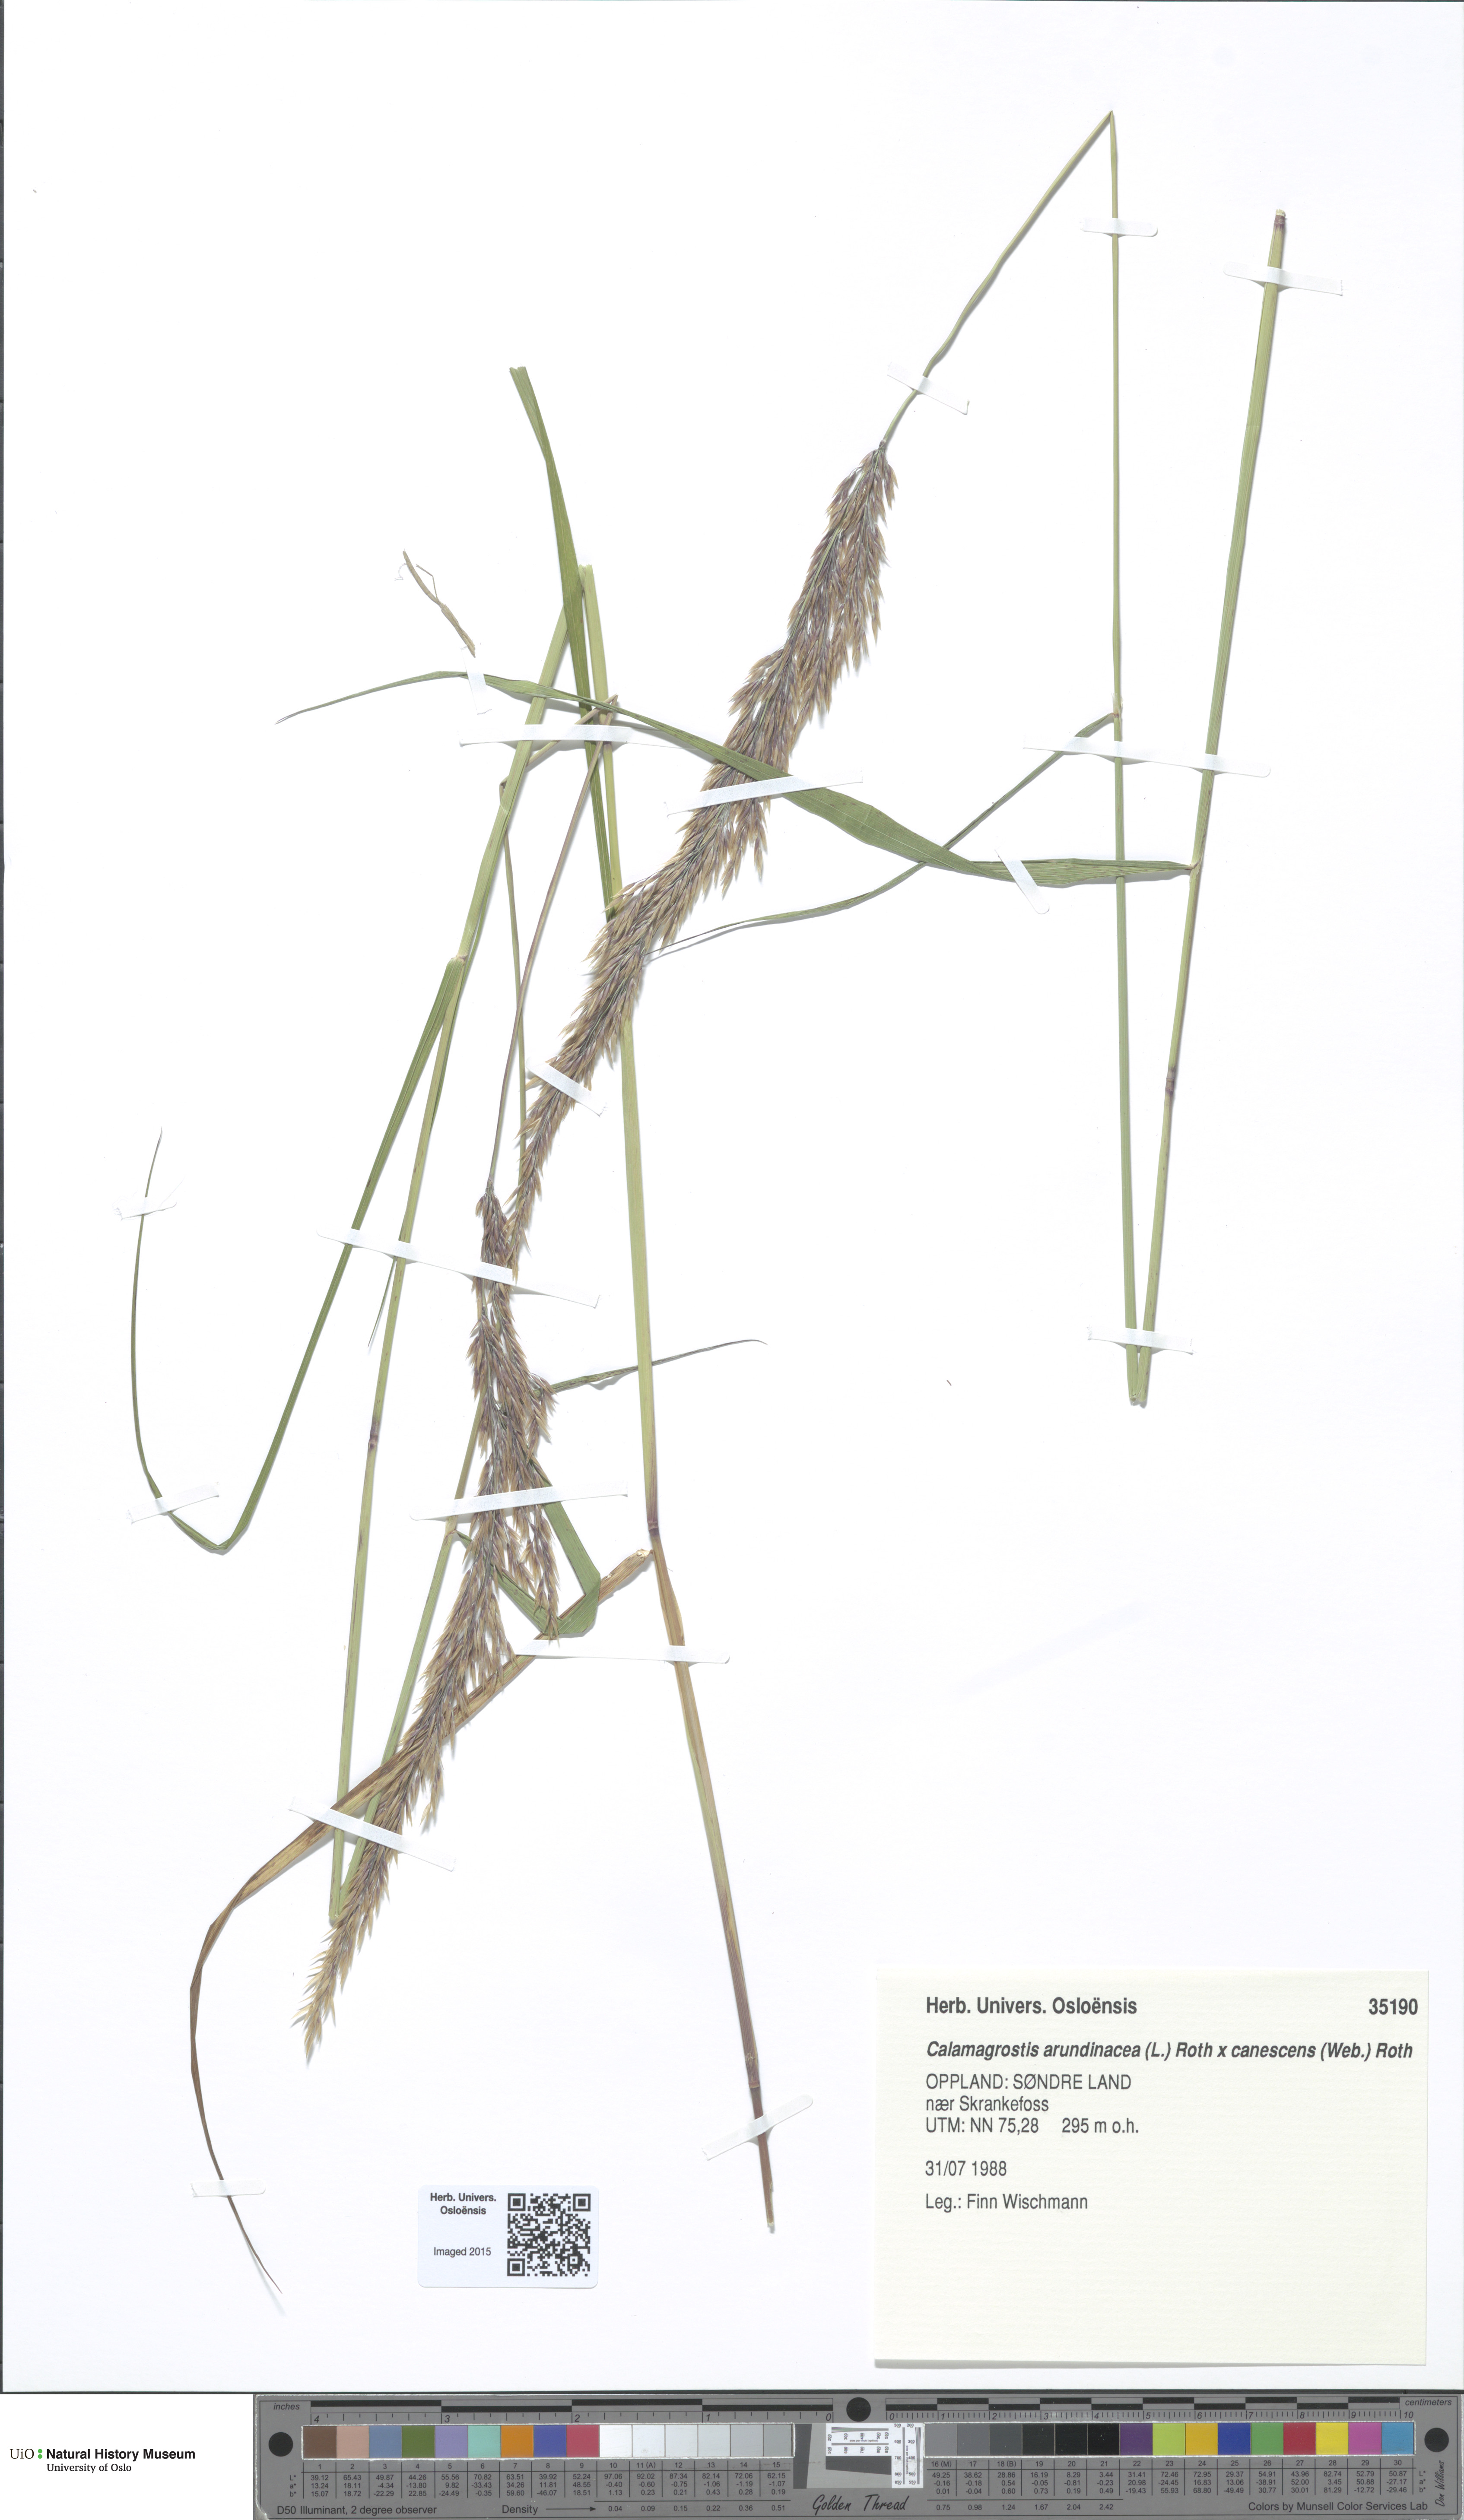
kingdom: Plantae
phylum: Tracheophyta
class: Liliopsida
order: Poales
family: Poaceae
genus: Calamagrostis
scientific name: Calamagrostis
